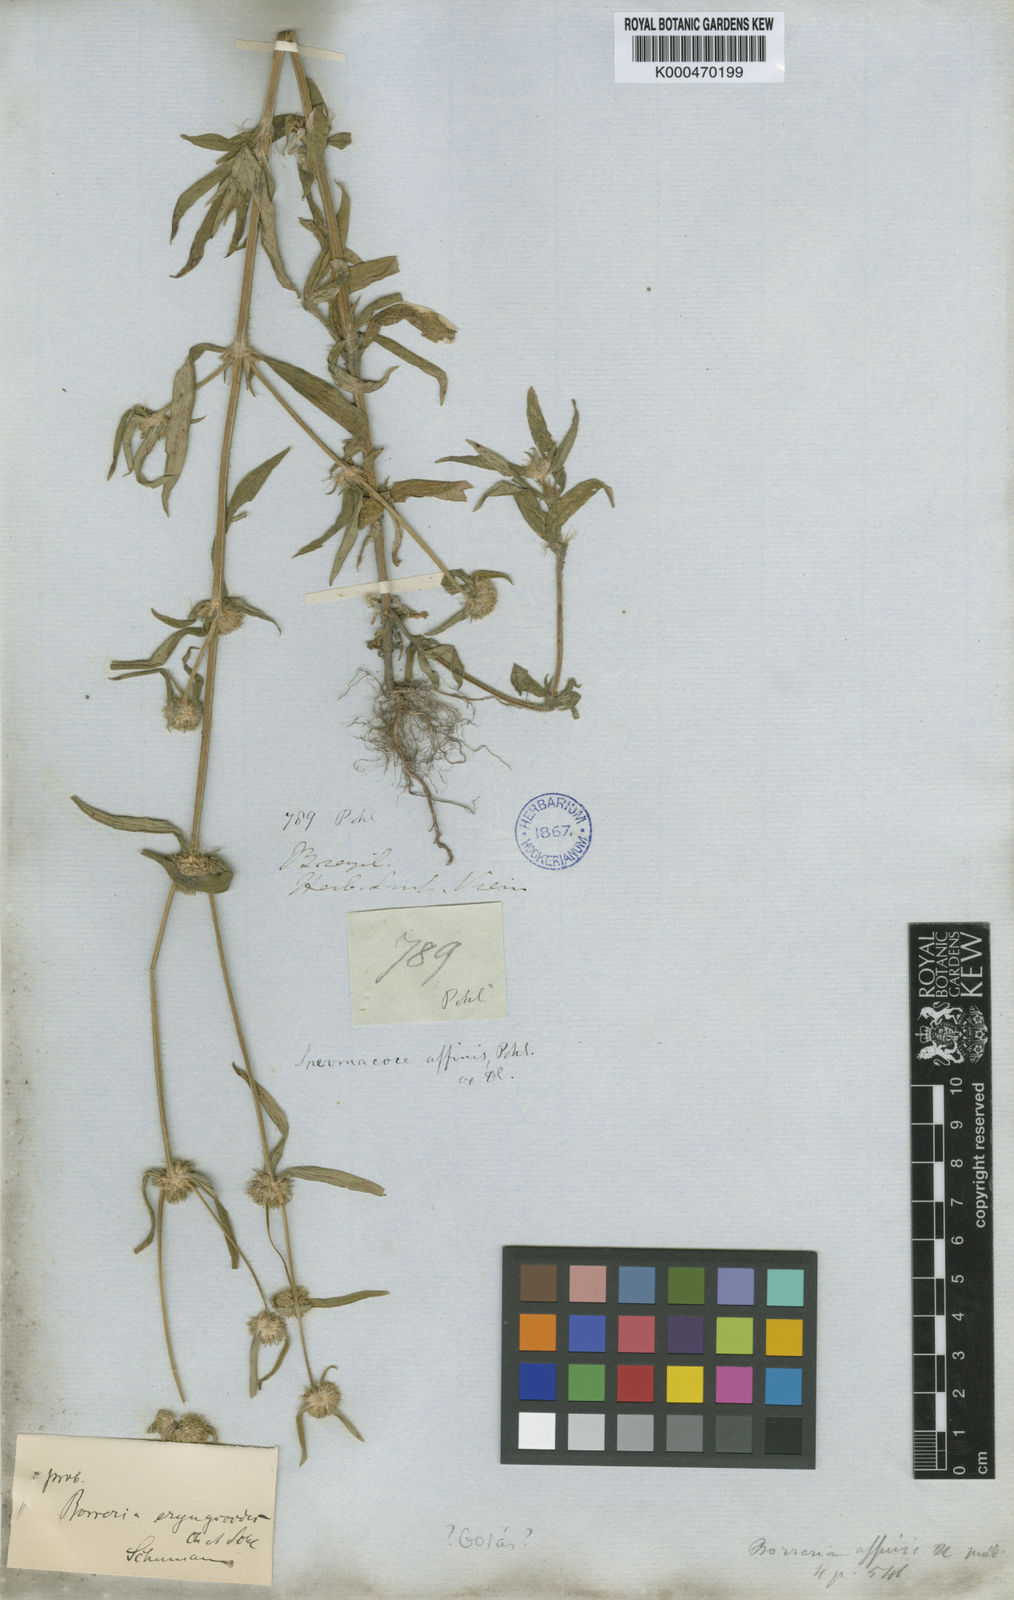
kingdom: Plantae
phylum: Tracheophyta
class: Magnoliopsida
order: Gentianales
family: Rubiaceae
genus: Spermacoce
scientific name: Spermacoce eryngioides
